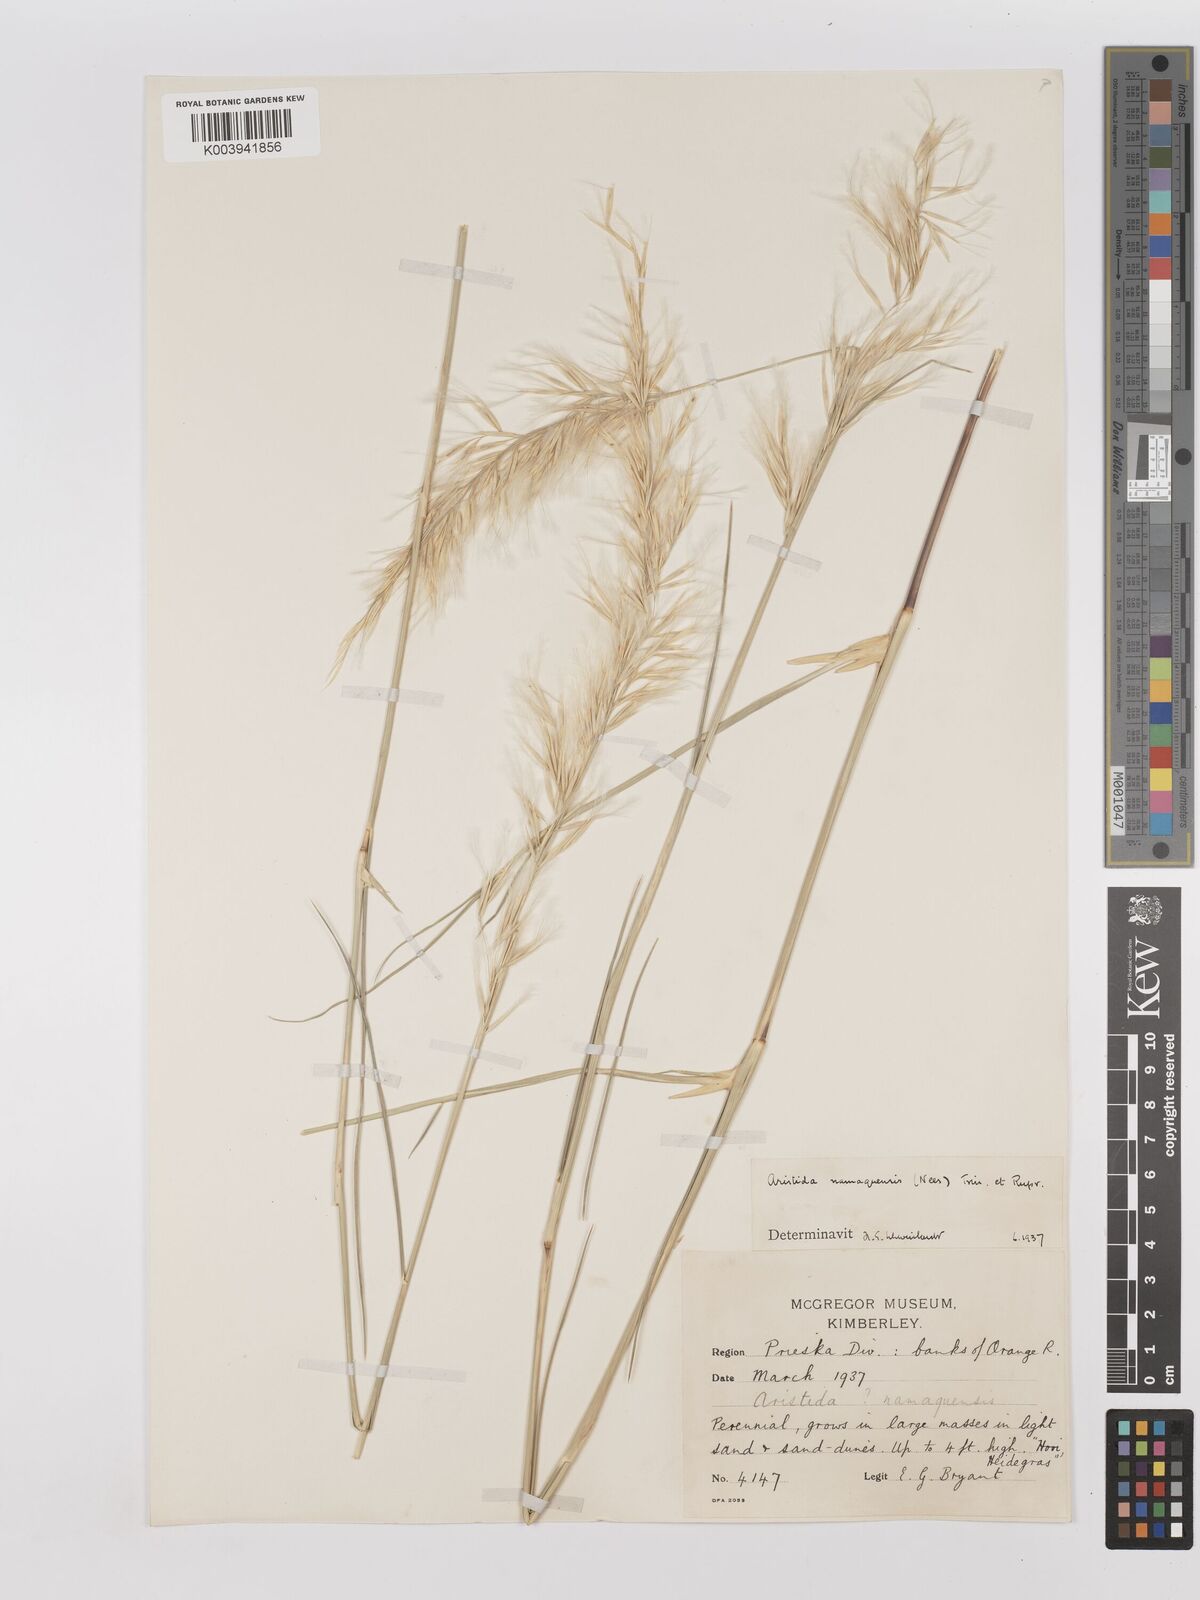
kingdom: Plantae
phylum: Tracheophyta
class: Liliopsida
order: Poales
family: Poaceae
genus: Stipagrostis
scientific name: Stipagrostis namaquensis
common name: River bushman grass
